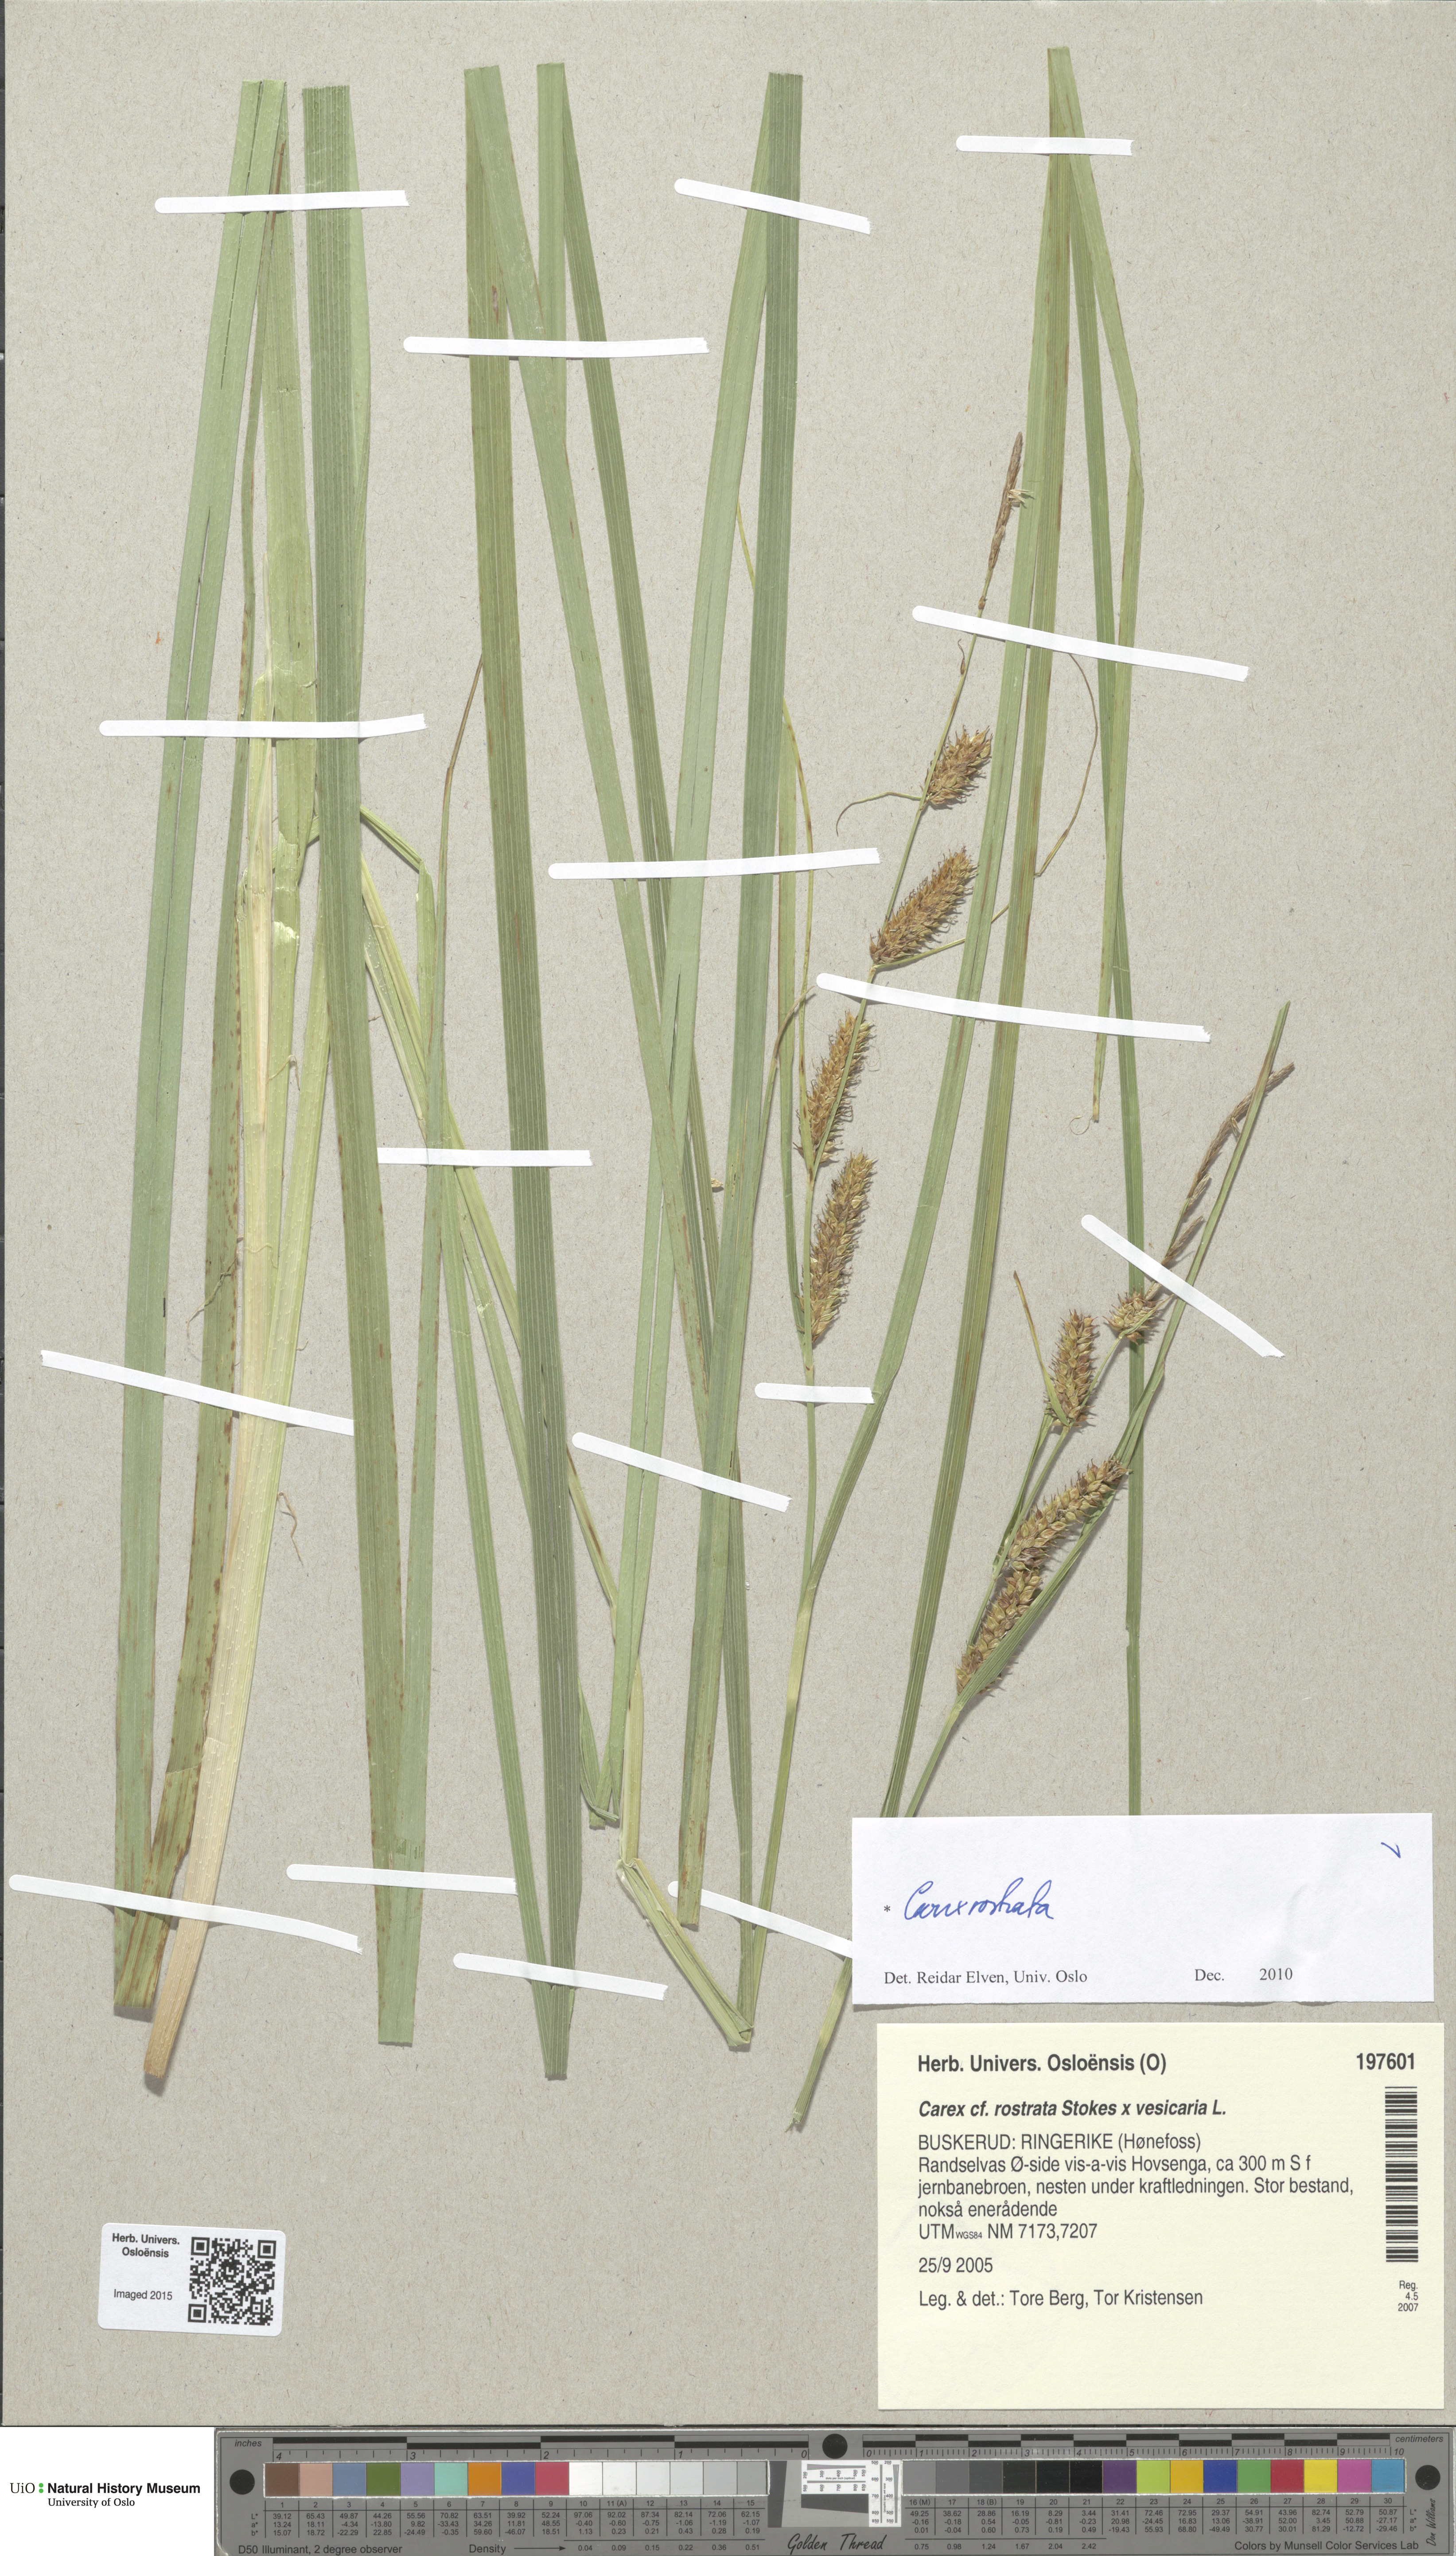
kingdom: Plantae
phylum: Tracheophyta
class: Liliopsida
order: Poales
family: Cyperaceae
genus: Carex
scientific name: Carex rostrata
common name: Bottle sedge
